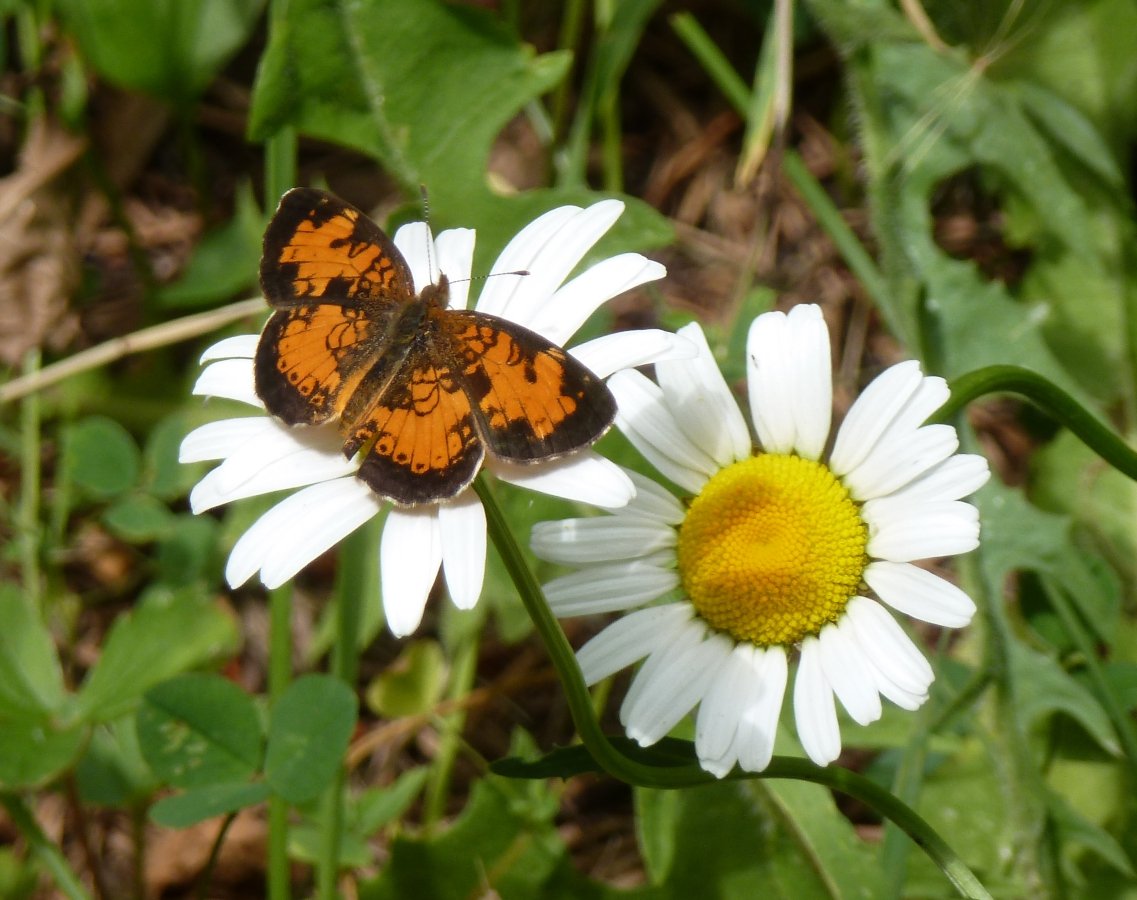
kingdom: Animalia
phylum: Arthropoda
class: Insecta
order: Lepidoptera
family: Nymphalidae
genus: Phyciodes
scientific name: Phyciodes tharos
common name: Northern Crescent
